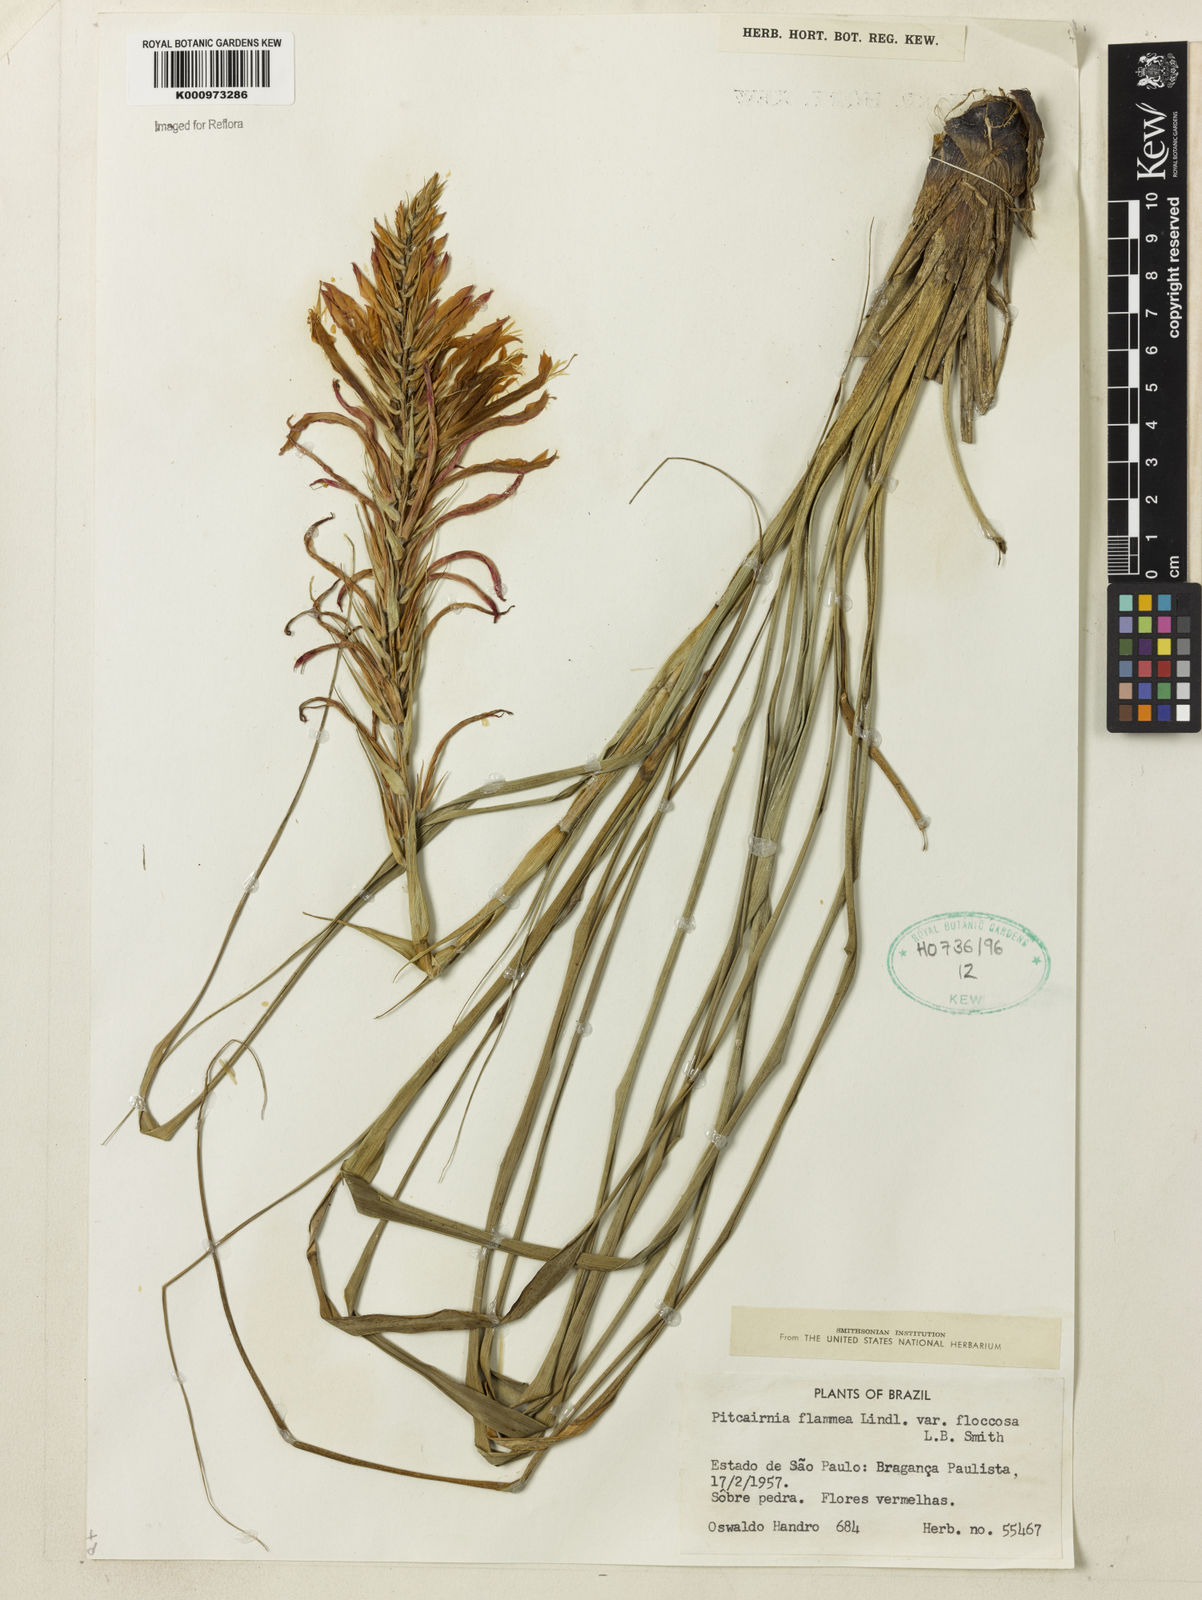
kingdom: Plantae
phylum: Tracheophyta
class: Liliopsida
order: Poales
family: Bromeliaceae
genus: Pitcairnia
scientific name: Pitcairnia flammea
